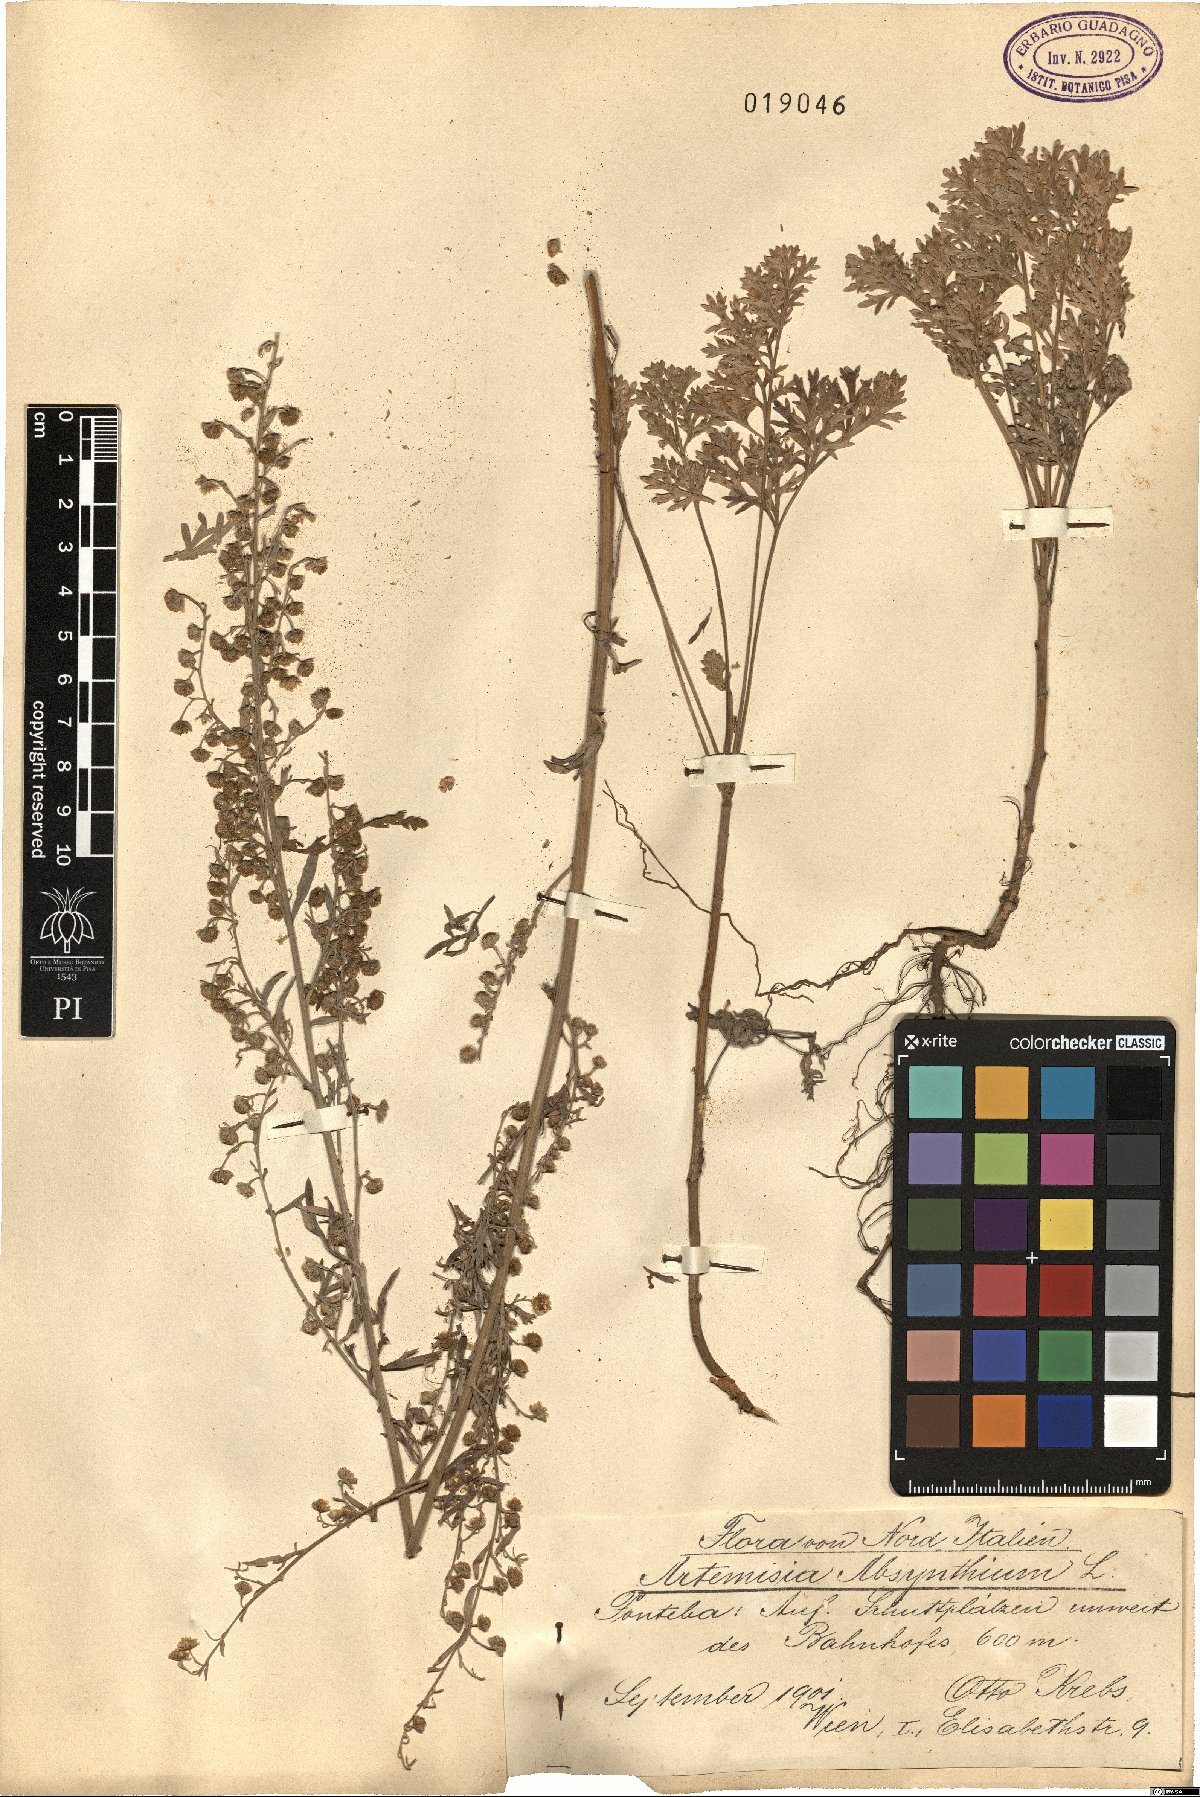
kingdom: Plantae
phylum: Tracheophyta
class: Magnoliopsida
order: Asterales
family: Asteraceae
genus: Artemisia
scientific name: Artemisia absinthium
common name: Wormwood
